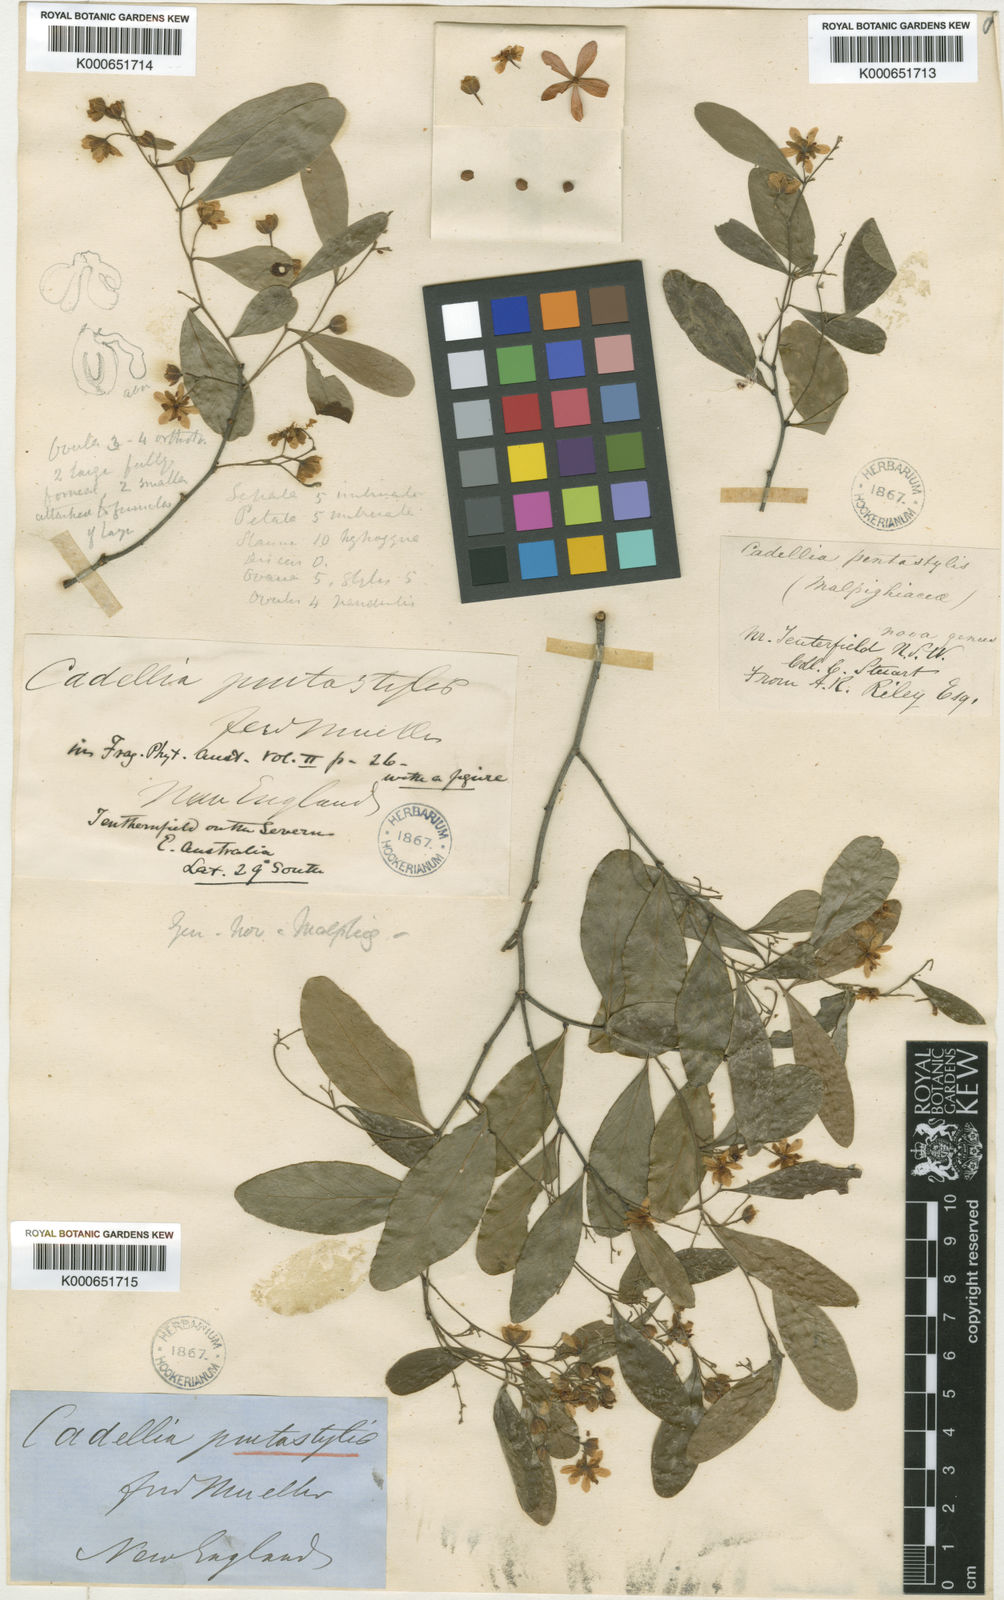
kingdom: Plantae
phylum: Tracheophyta
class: Magnoliopsida
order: Fabales
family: Surianaceae
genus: Cadellia
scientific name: Cadellia pentastylis
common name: Scrub-myrtle
